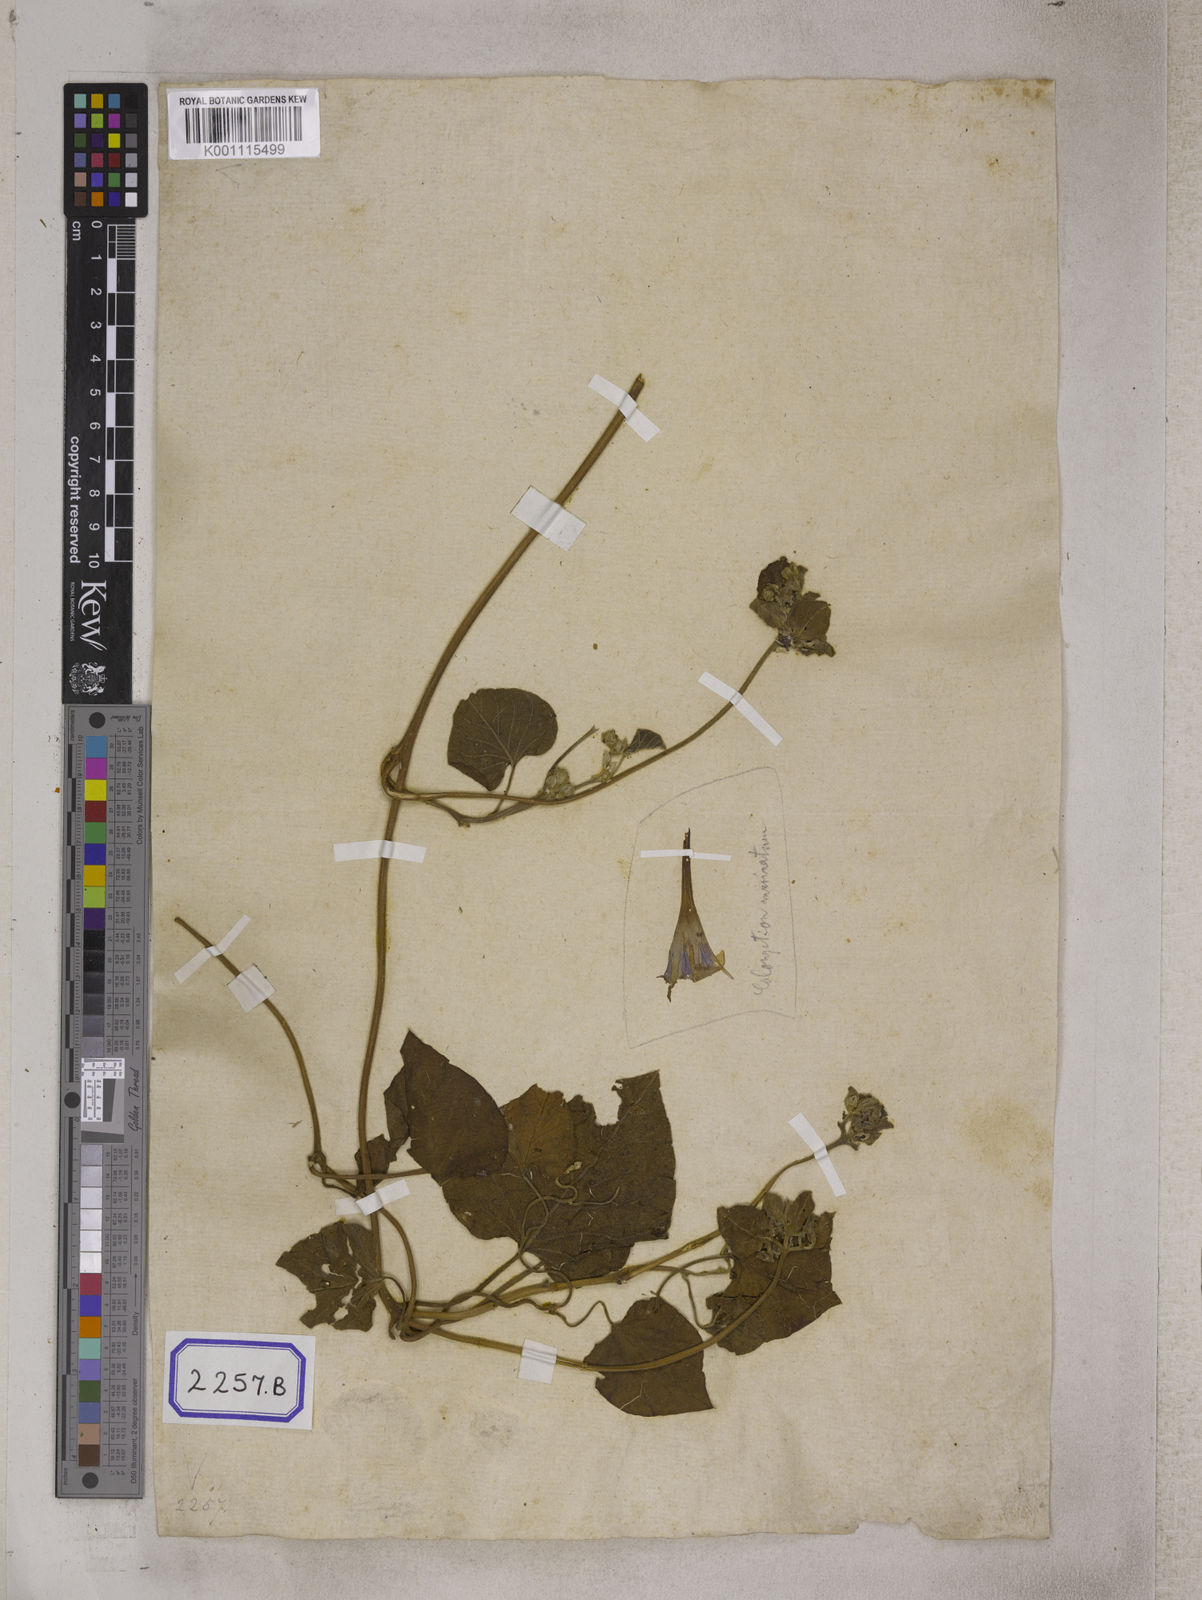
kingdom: Plantae
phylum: Tracheophyta
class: Magnoliopsida
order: Solanales
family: Convolvulaceae
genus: Convolvulus
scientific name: Convolvulus
